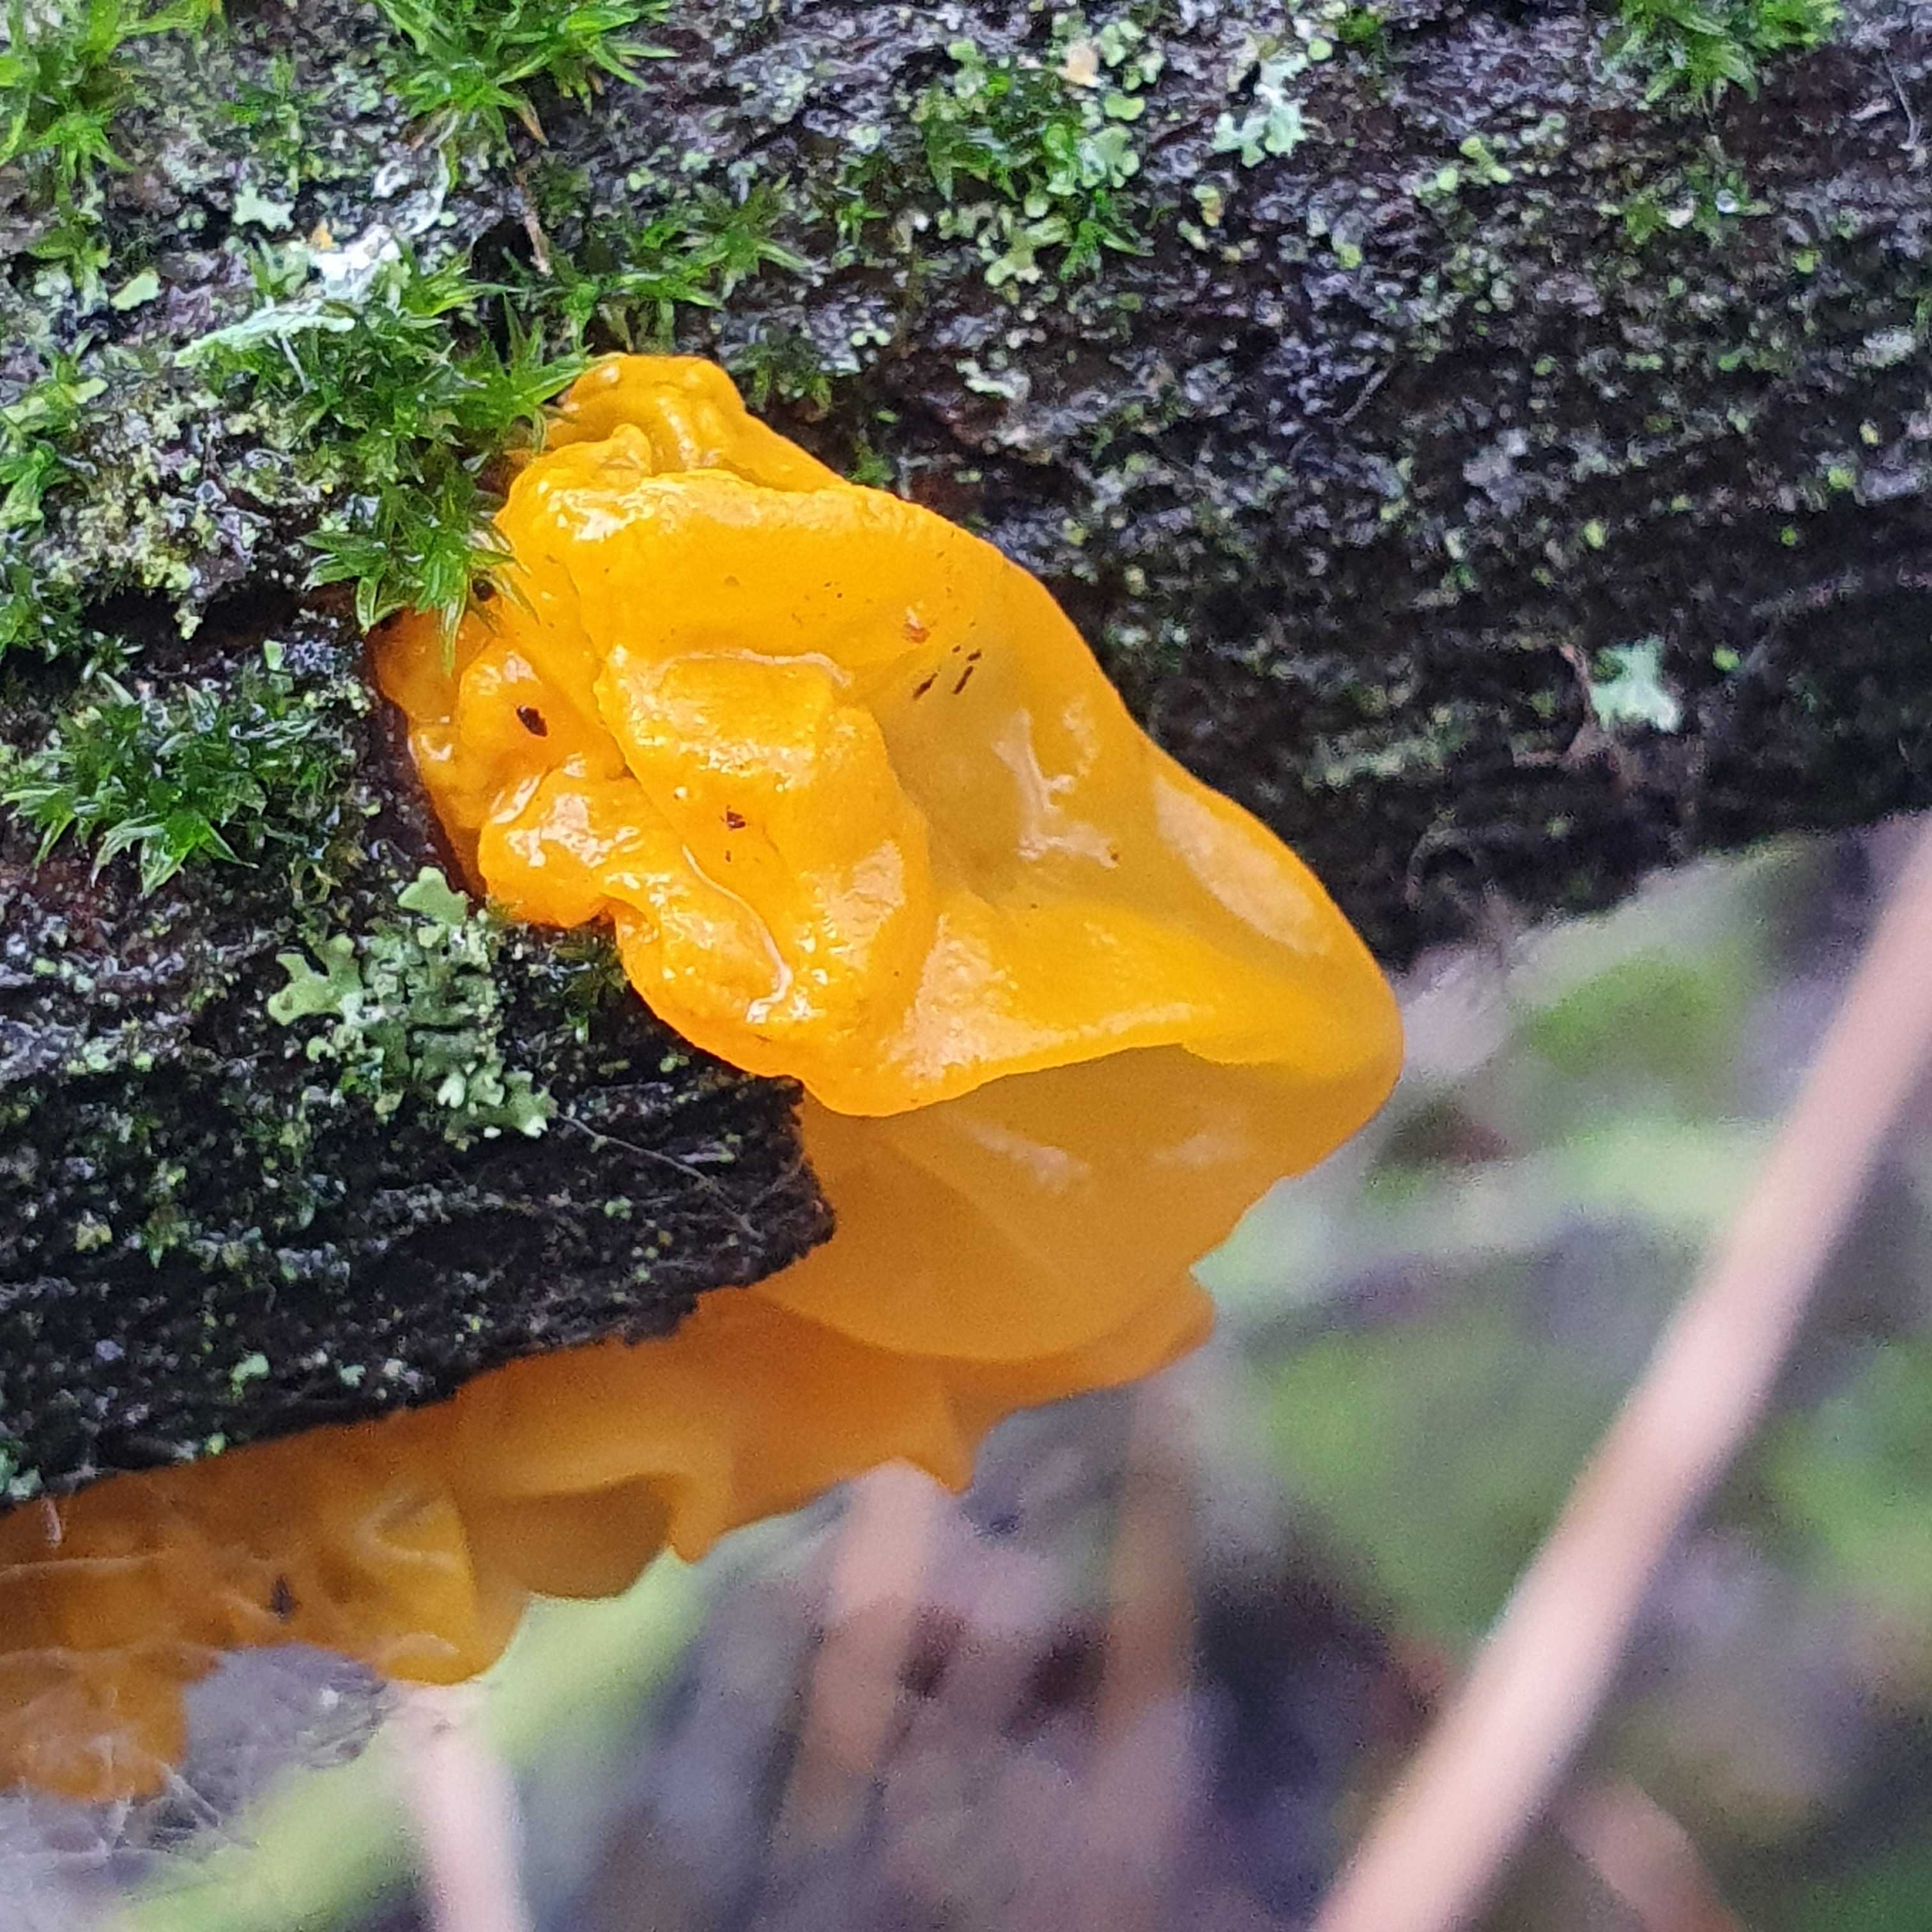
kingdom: Fungi
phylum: Basidiomycota
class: Tremellomycetes
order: Tremellales
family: Tremellaceae
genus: Tremella
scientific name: Tremella mesenterica
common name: gul bævresvamp
